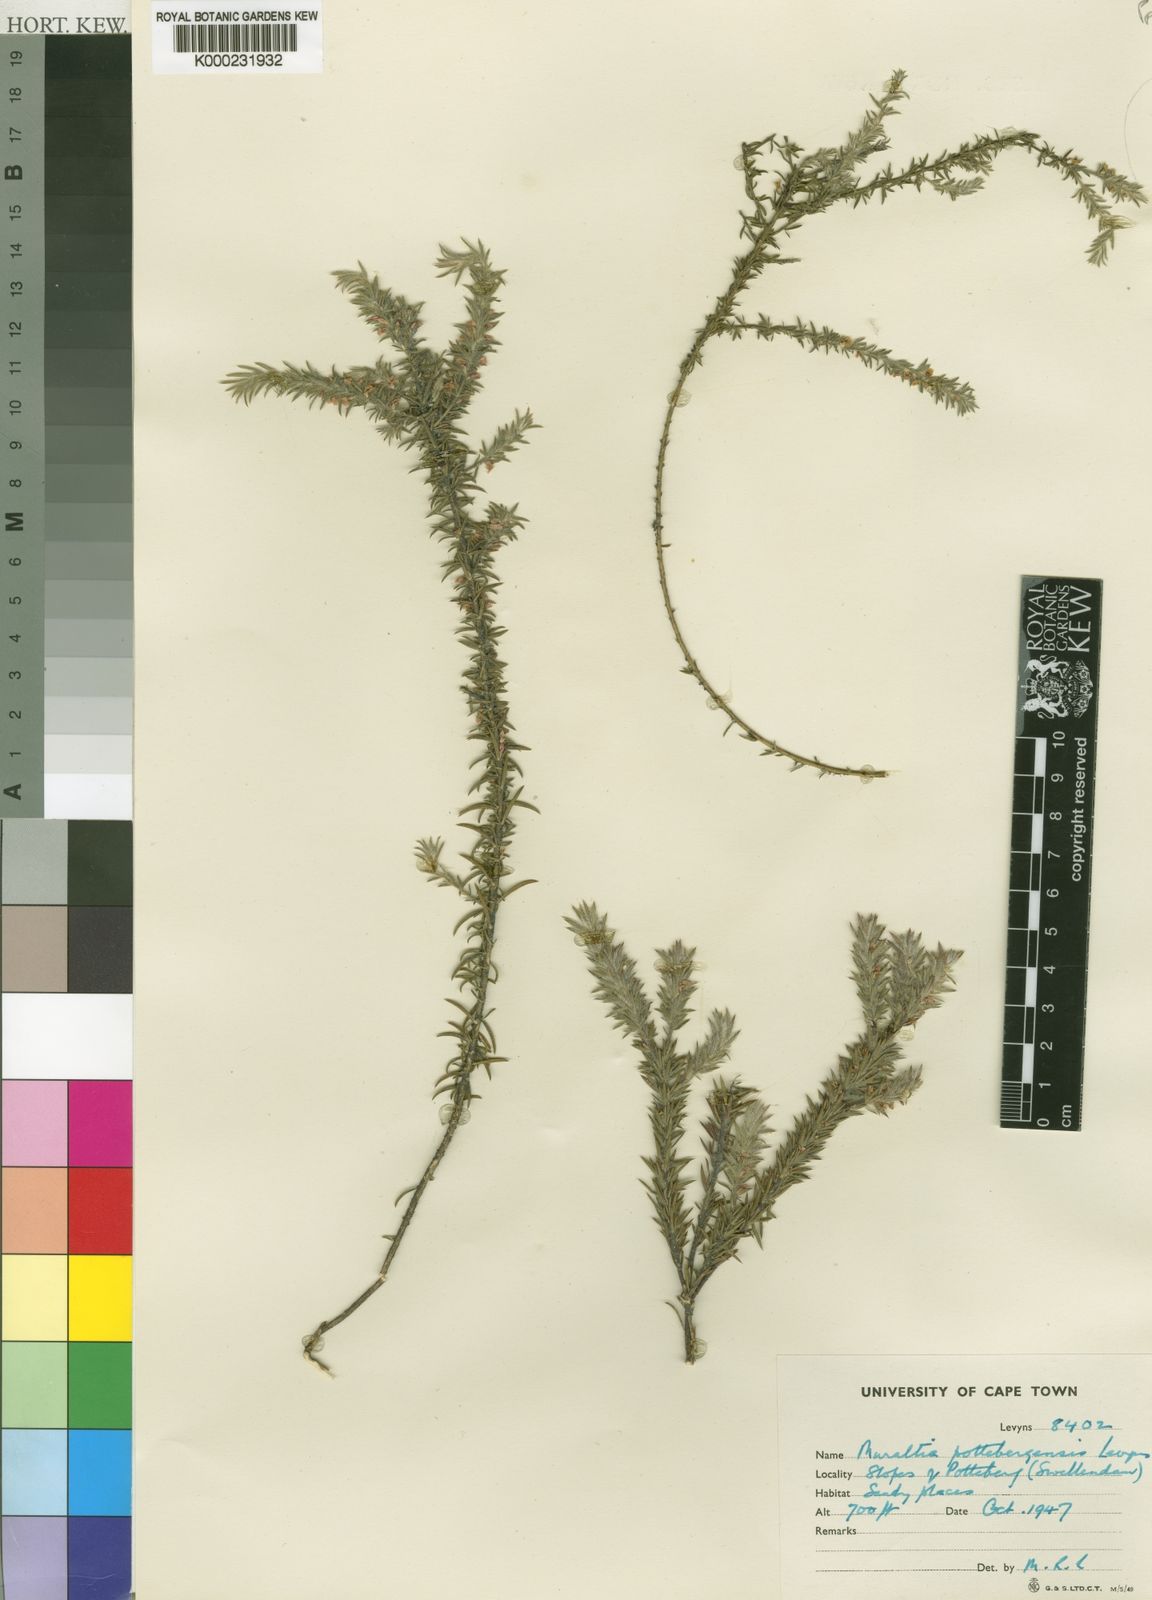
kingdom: Plantae
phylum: Tracheophyta
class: Magnoliopsida
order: Fabales
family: Polygalaceae
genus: Muraltia
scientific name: Muraltia pottebergensis
